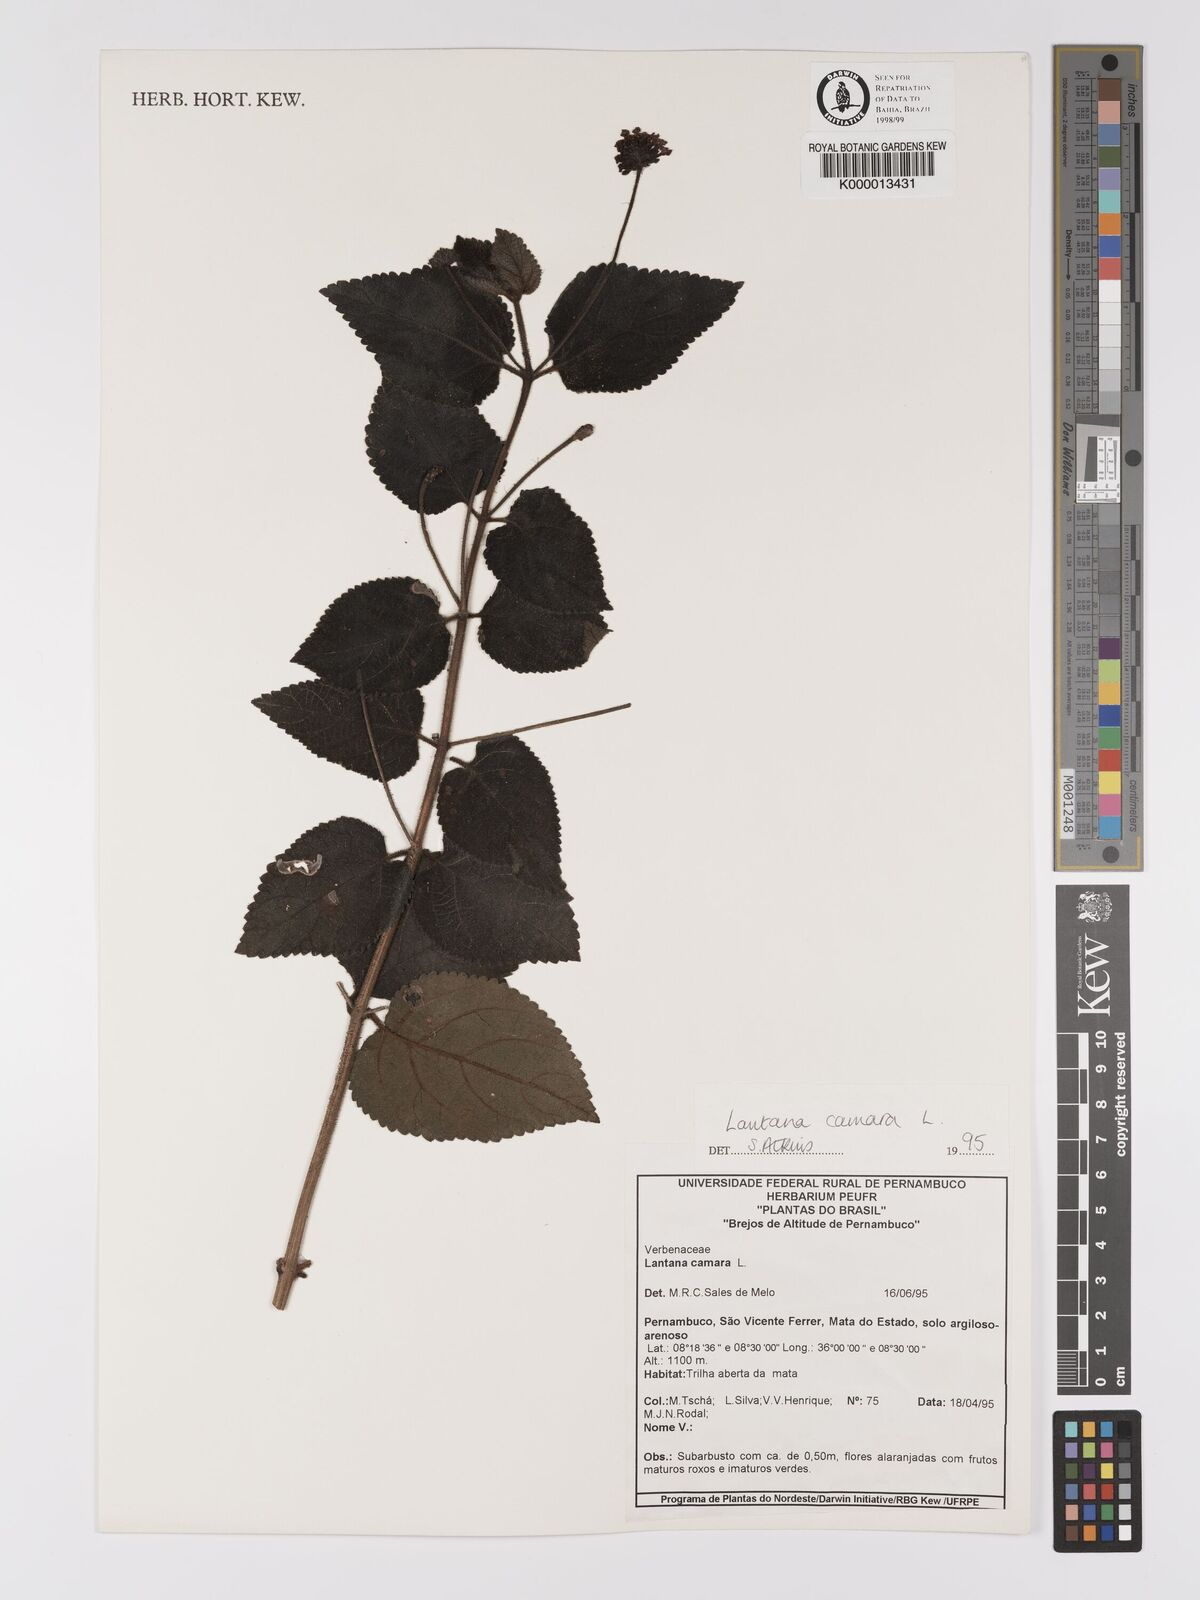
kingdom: Plantae
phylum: Tracheophyta
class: Magnoliopsida
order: Lamiales
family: Verbenaceae
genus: Lantana
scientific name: Lantana camara
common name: Lantana
